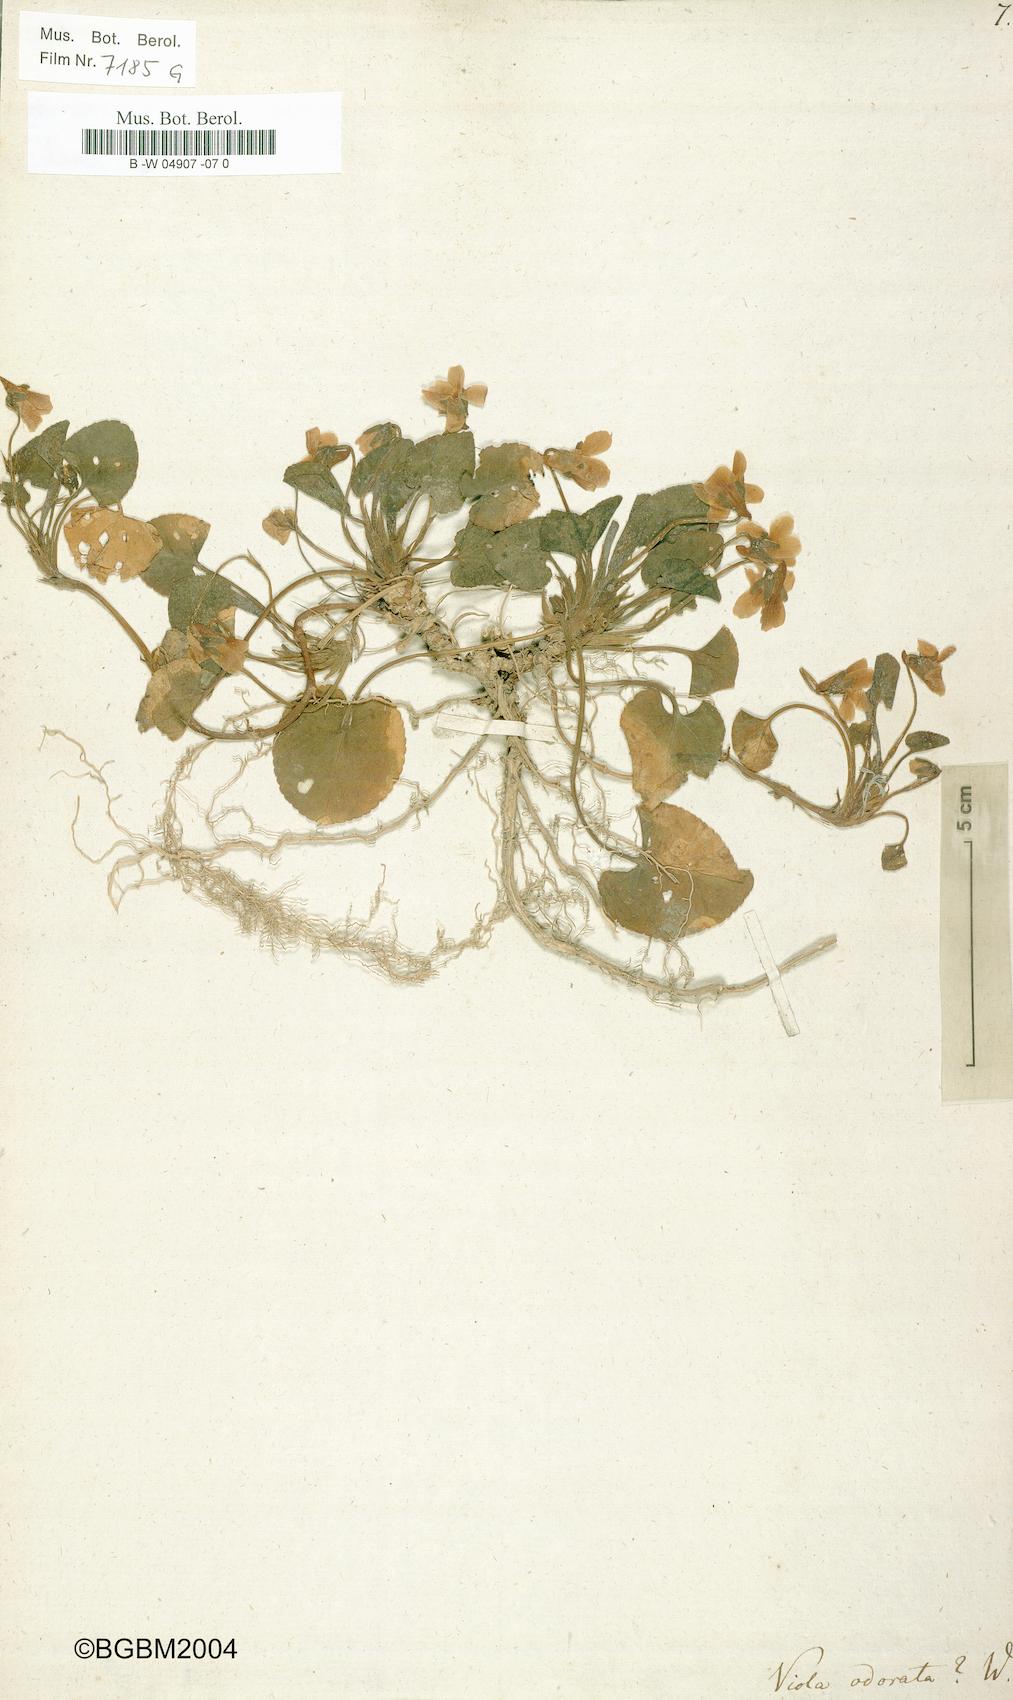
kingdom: Plantae
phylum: Tracheophyta
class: Magnoliopsida
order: Malpighiales
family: Violaceae
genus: Viola
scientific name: Viola odorata
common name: Sweet violet
